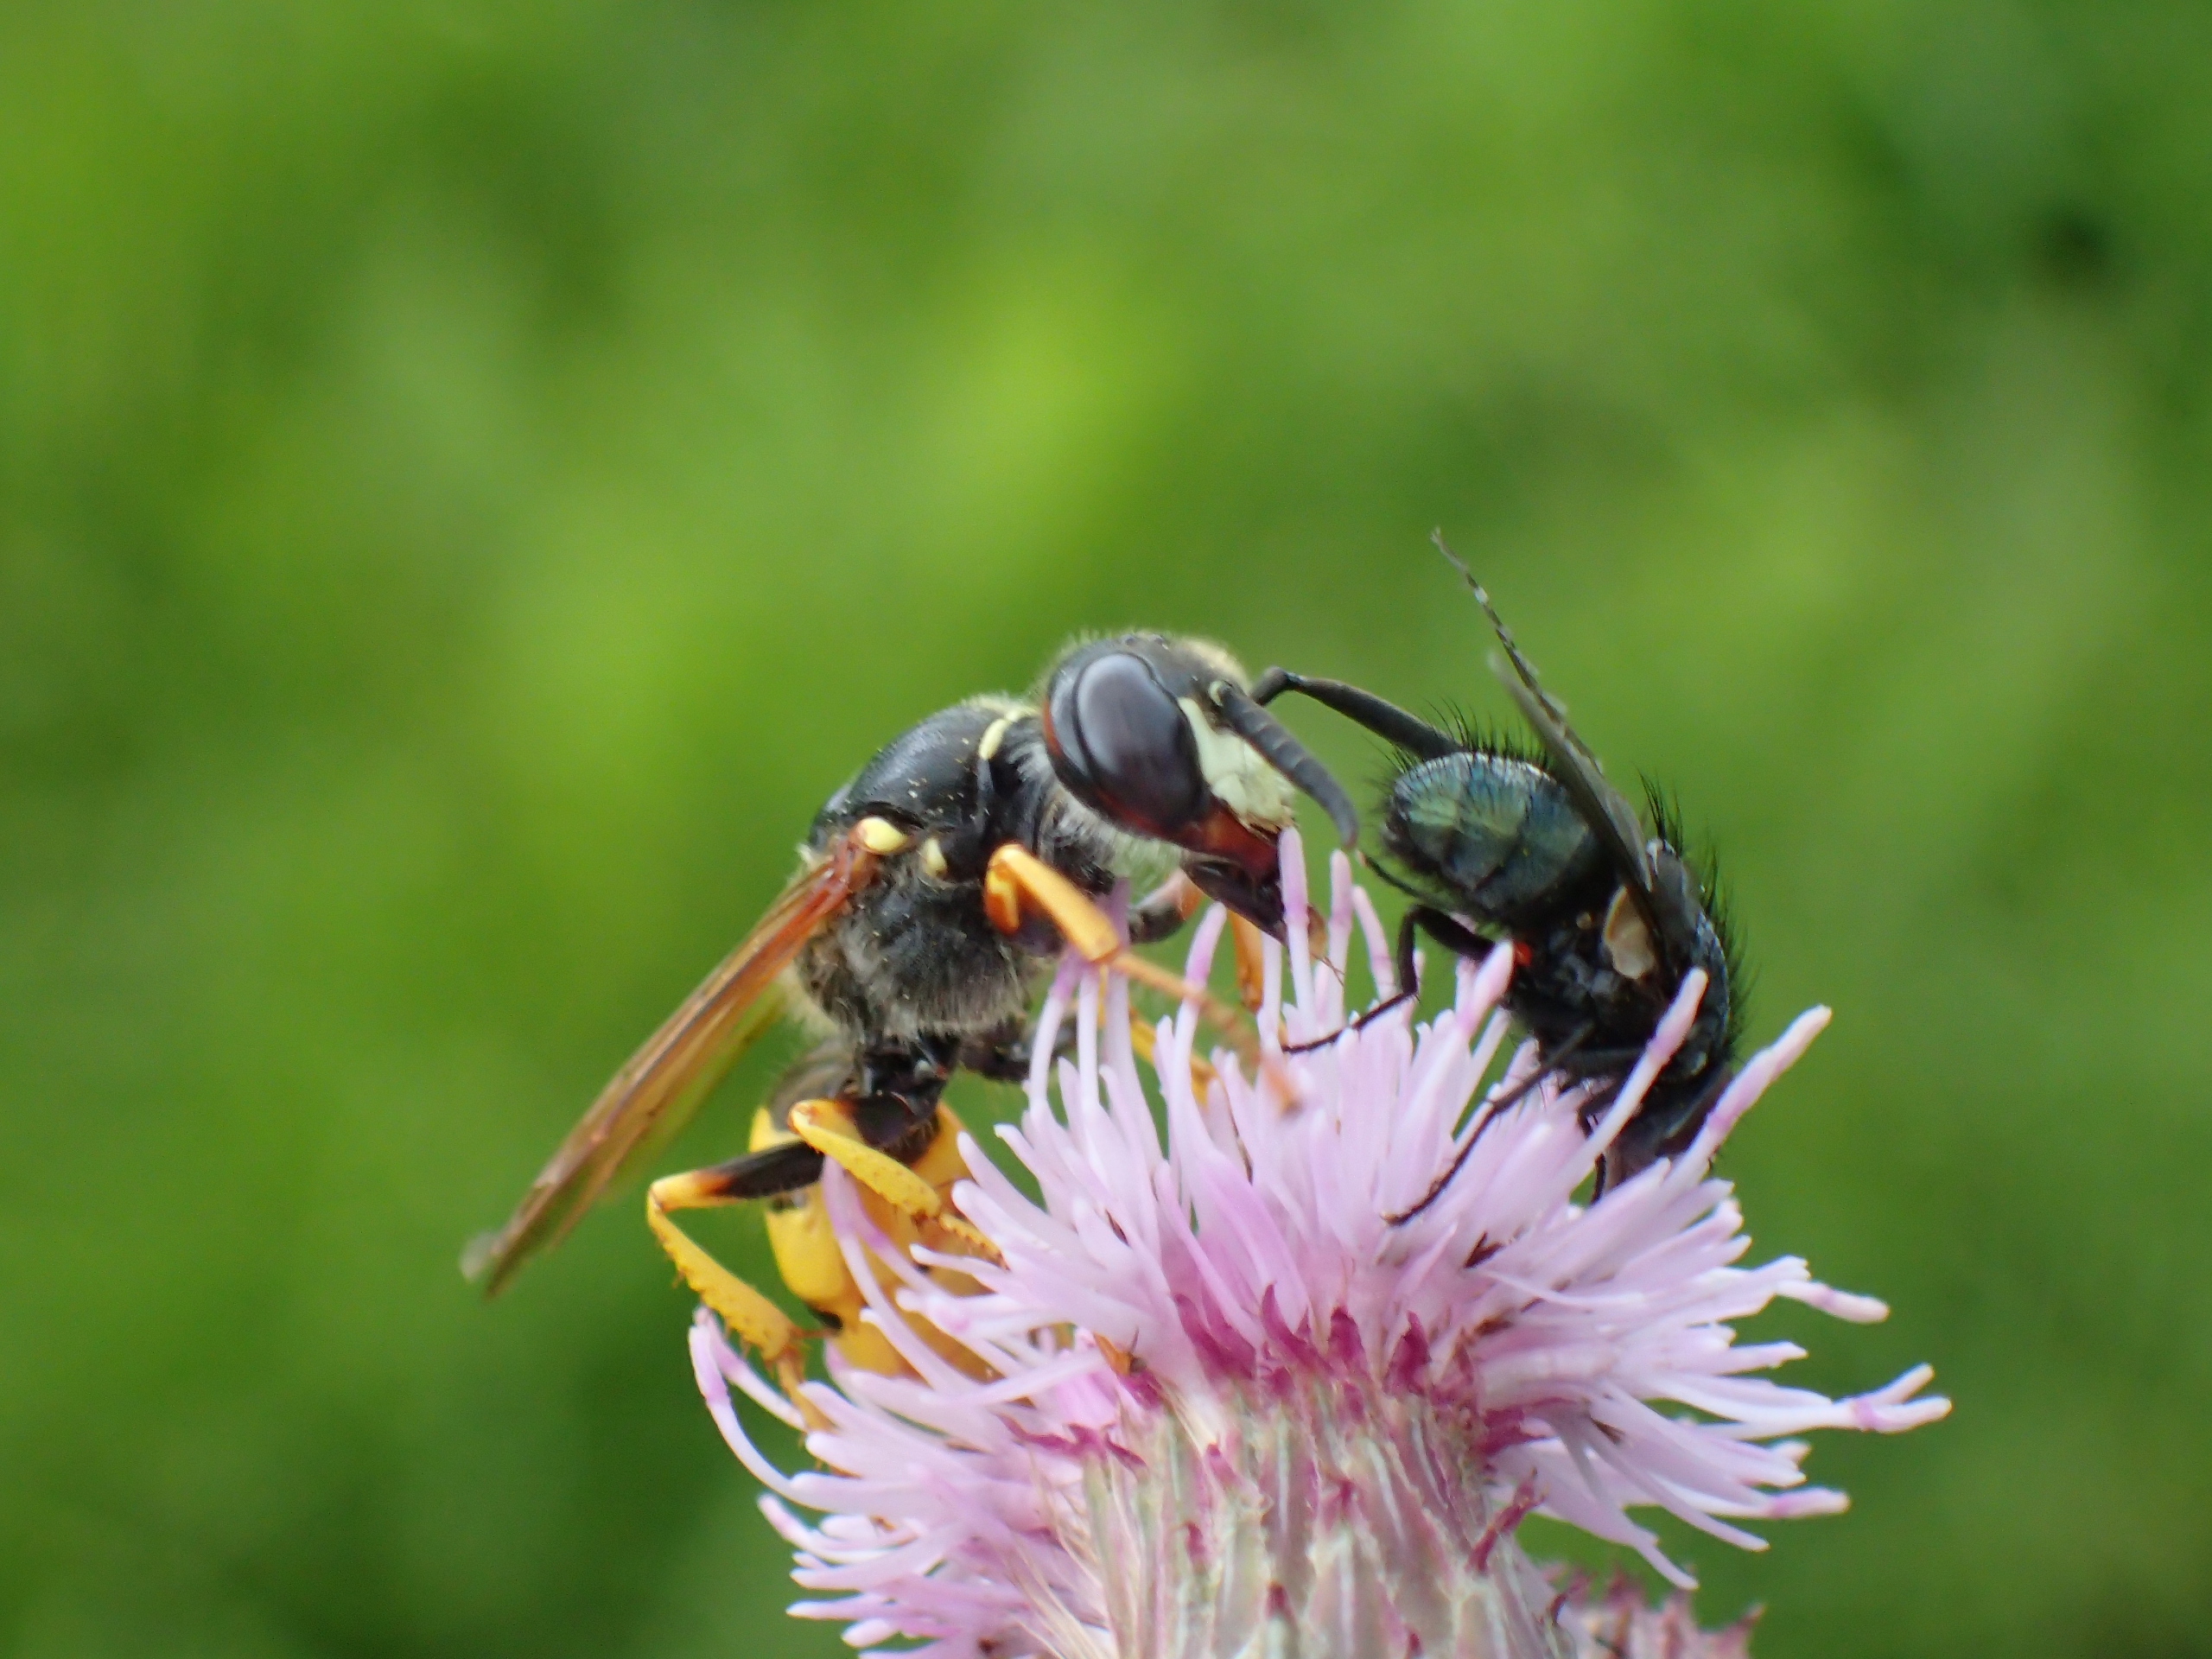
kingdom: Animalia
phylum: Arthropoda
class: Insecta
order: Hymenoptera
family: Crabronidae
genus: Philanthus
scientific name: Philanthus triangulum
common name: Biulv
